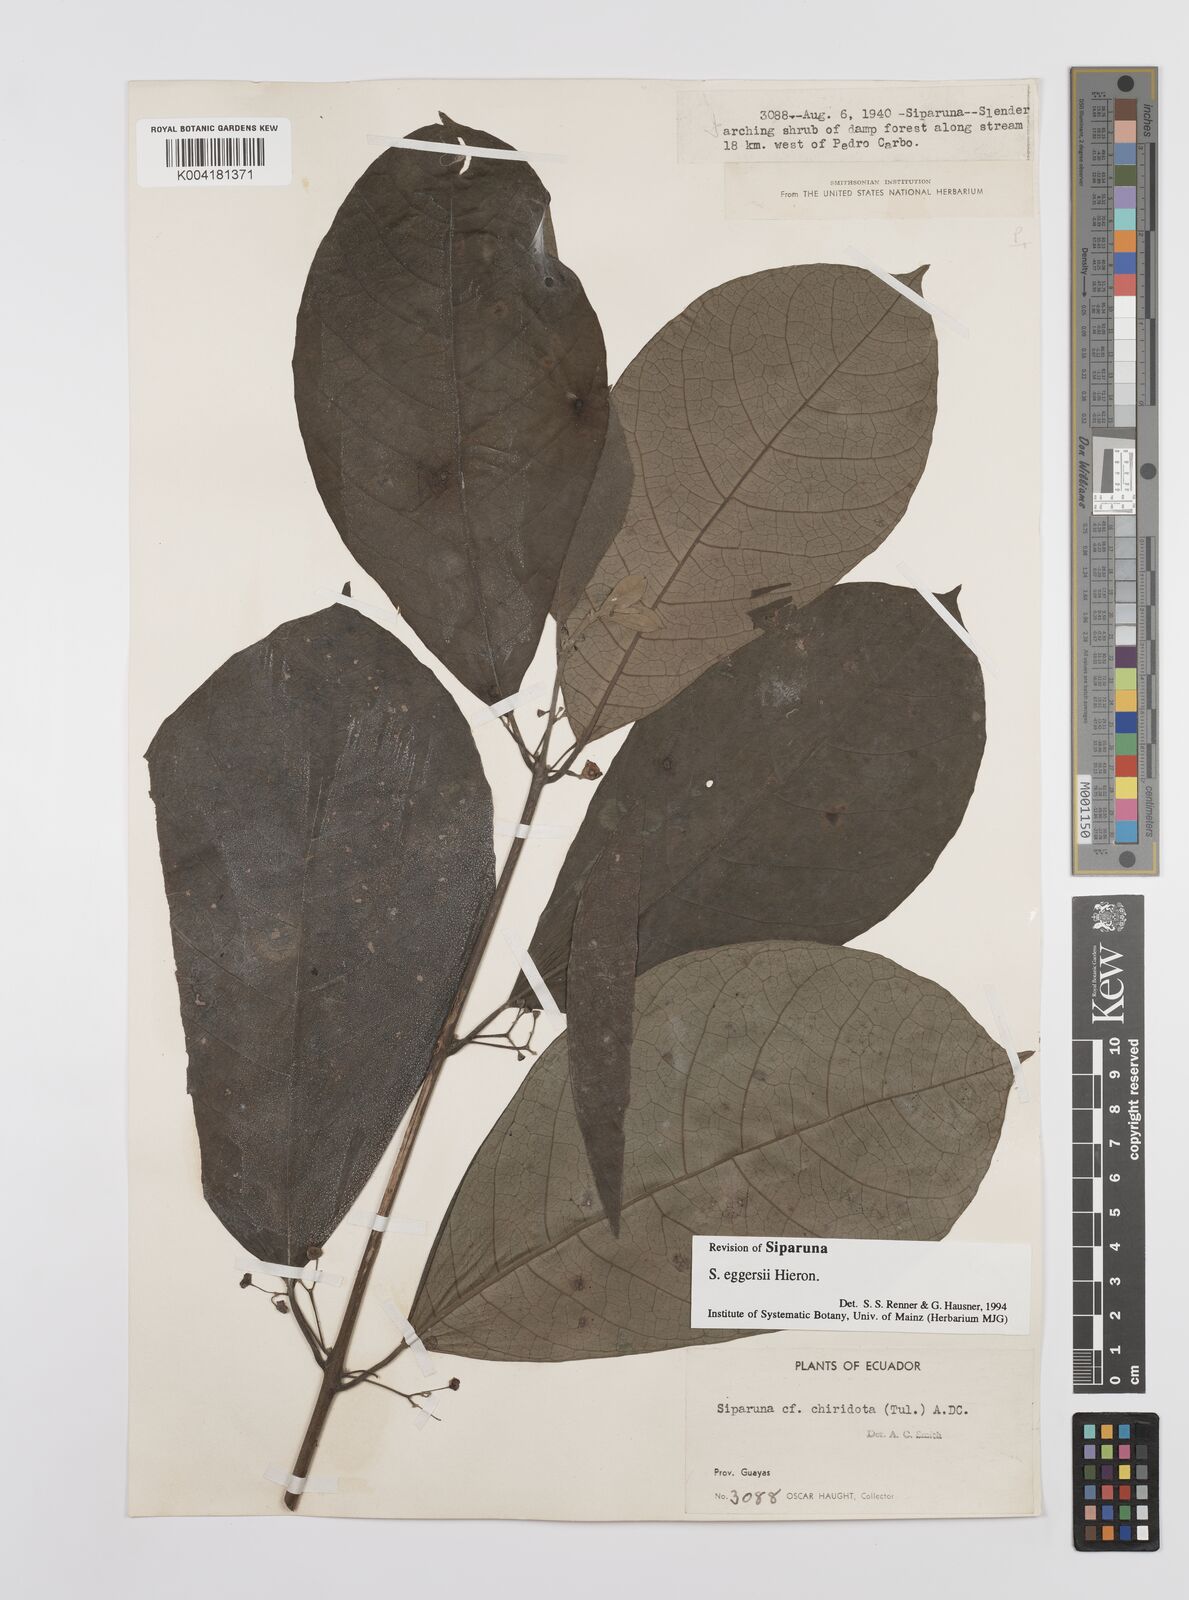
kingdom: Plantae
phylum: Tracheophyta
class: Magnoliopsida
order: Laurales
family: Siparunaceae
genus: Siparuna
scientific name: Siparuna eggersii
